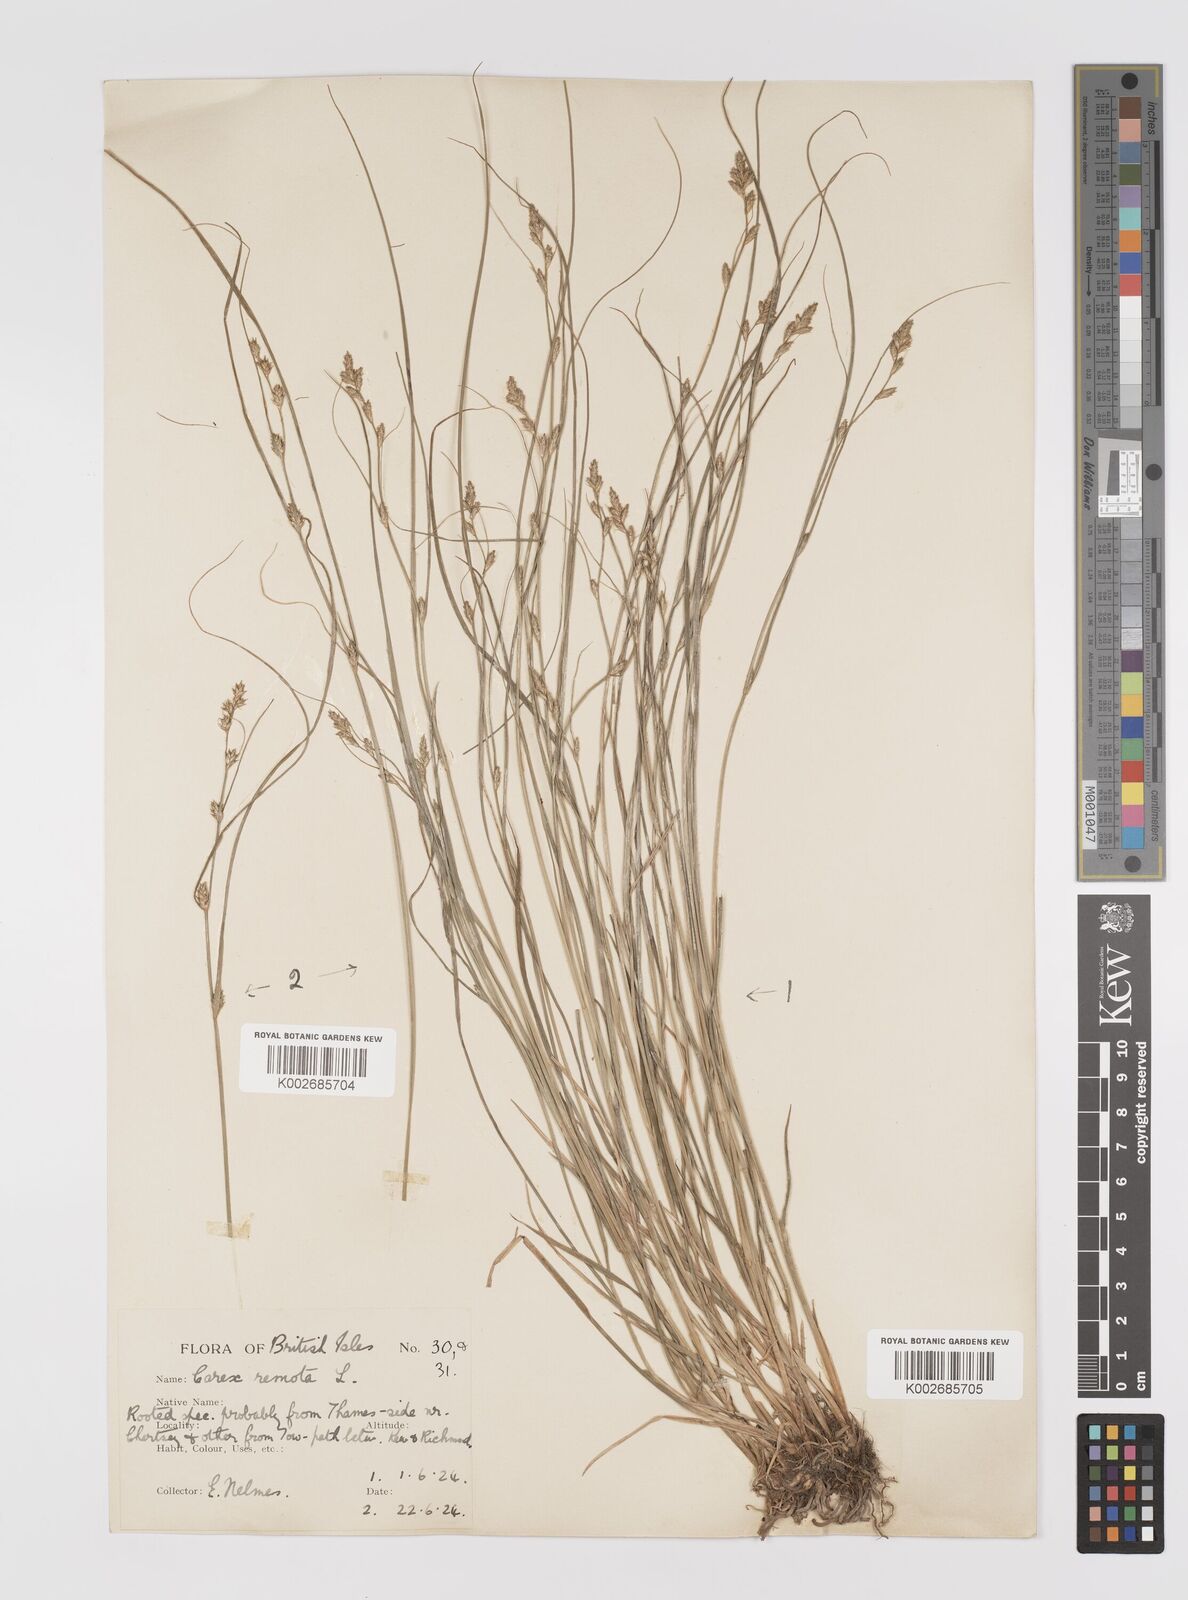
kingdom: Plantae
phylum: Tracheophyta
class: Liliopsida
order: Poales
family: Cyperaceae
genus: Carex
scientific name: Carex remota
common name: Remote sedge
